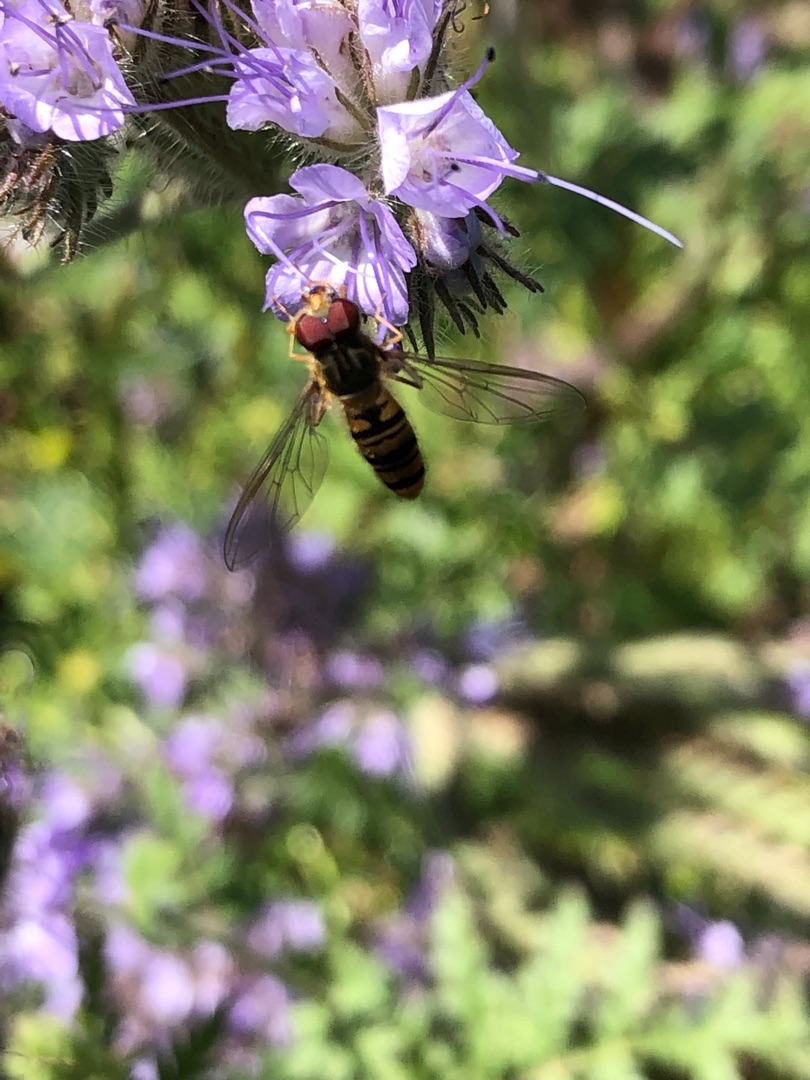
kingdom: Animalia
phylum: Arthropoda
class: Insecta
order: Diptera
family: Syrphidae
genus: Episyrphus
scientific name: Episyrphus balteatus
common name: Dobbeltbåndet svirreflue
